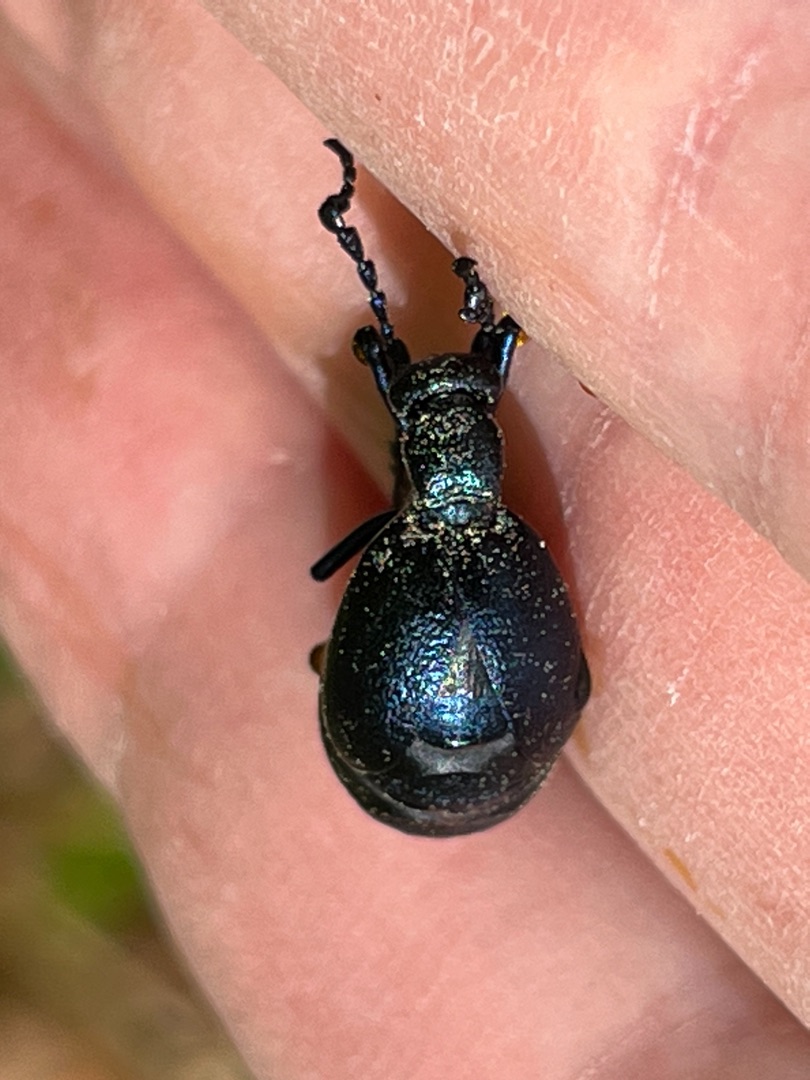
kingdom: Animalia
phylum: Arthropoda
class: Insecta
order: Coleoptera
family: Meloidae
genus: Meloe
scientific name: Meloe violaceus
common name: Blå oliebille
